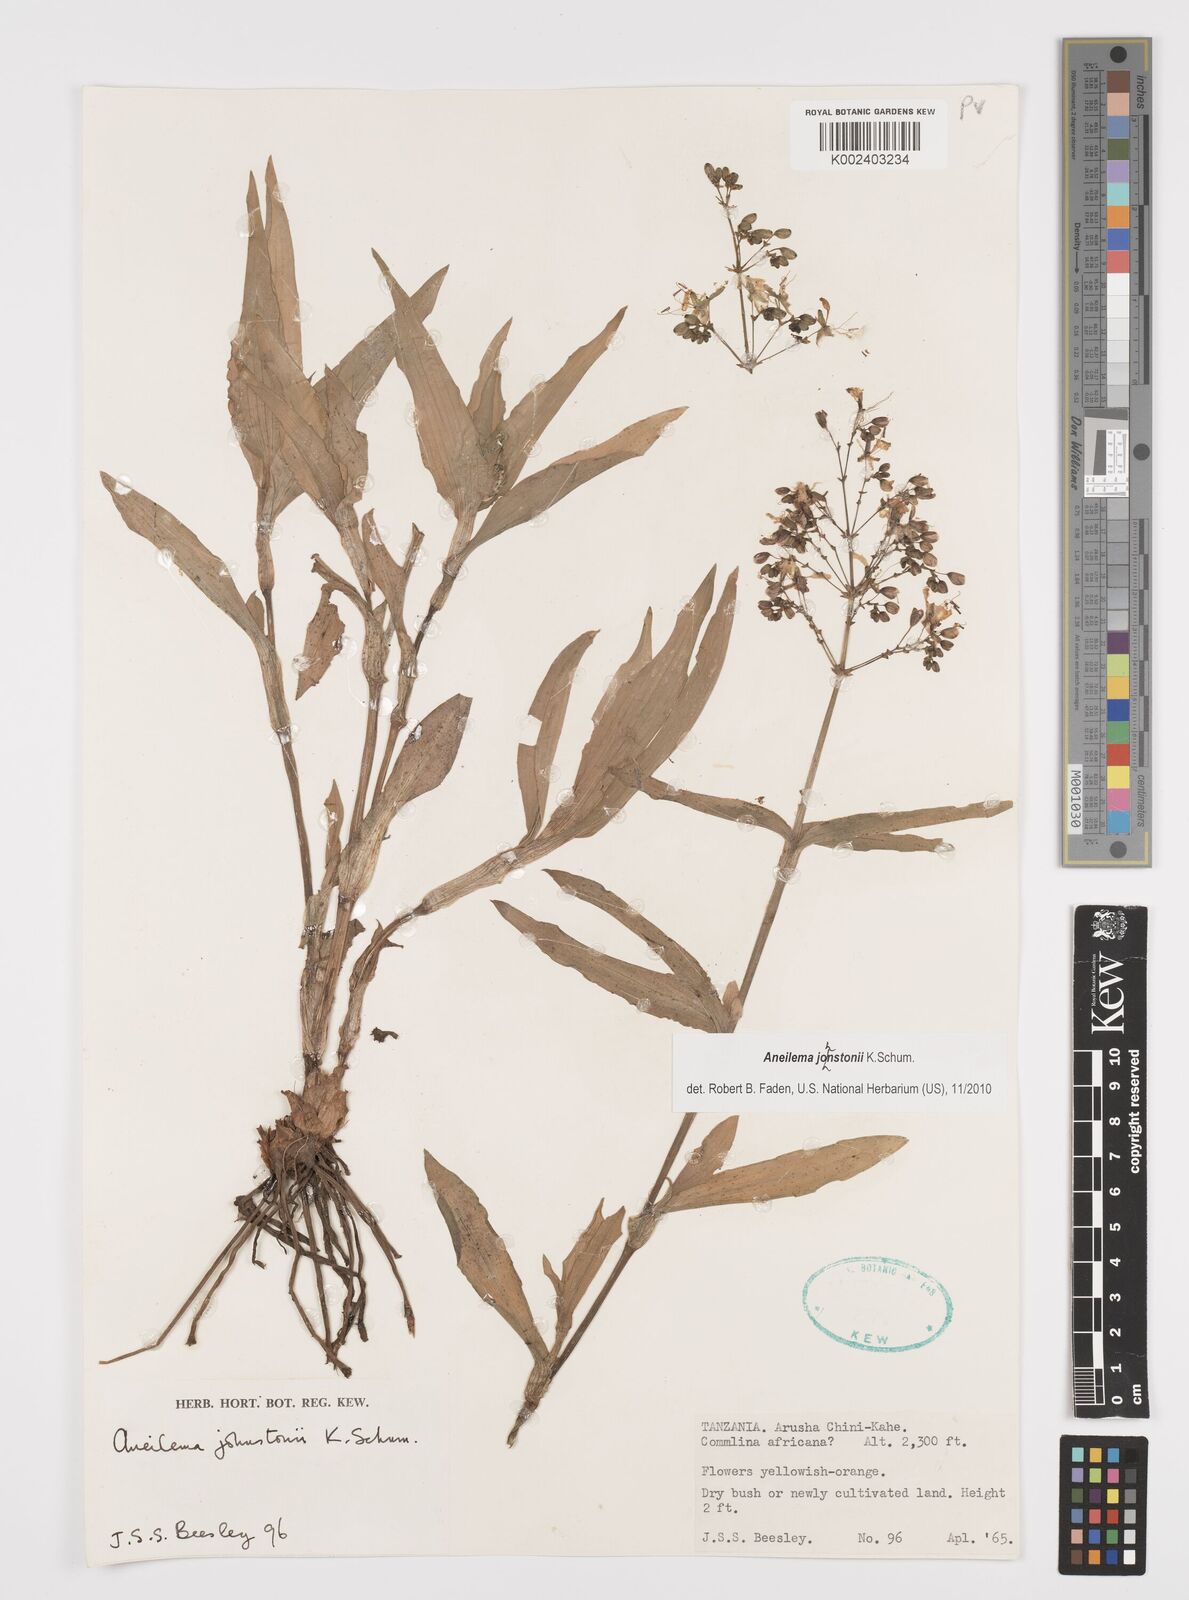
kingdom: Plantae
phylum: Tracheophyta
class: Liliopsida
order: Commelinales
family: Commelinaceae
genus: Aneilema
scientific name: Aneilema johnstonii
